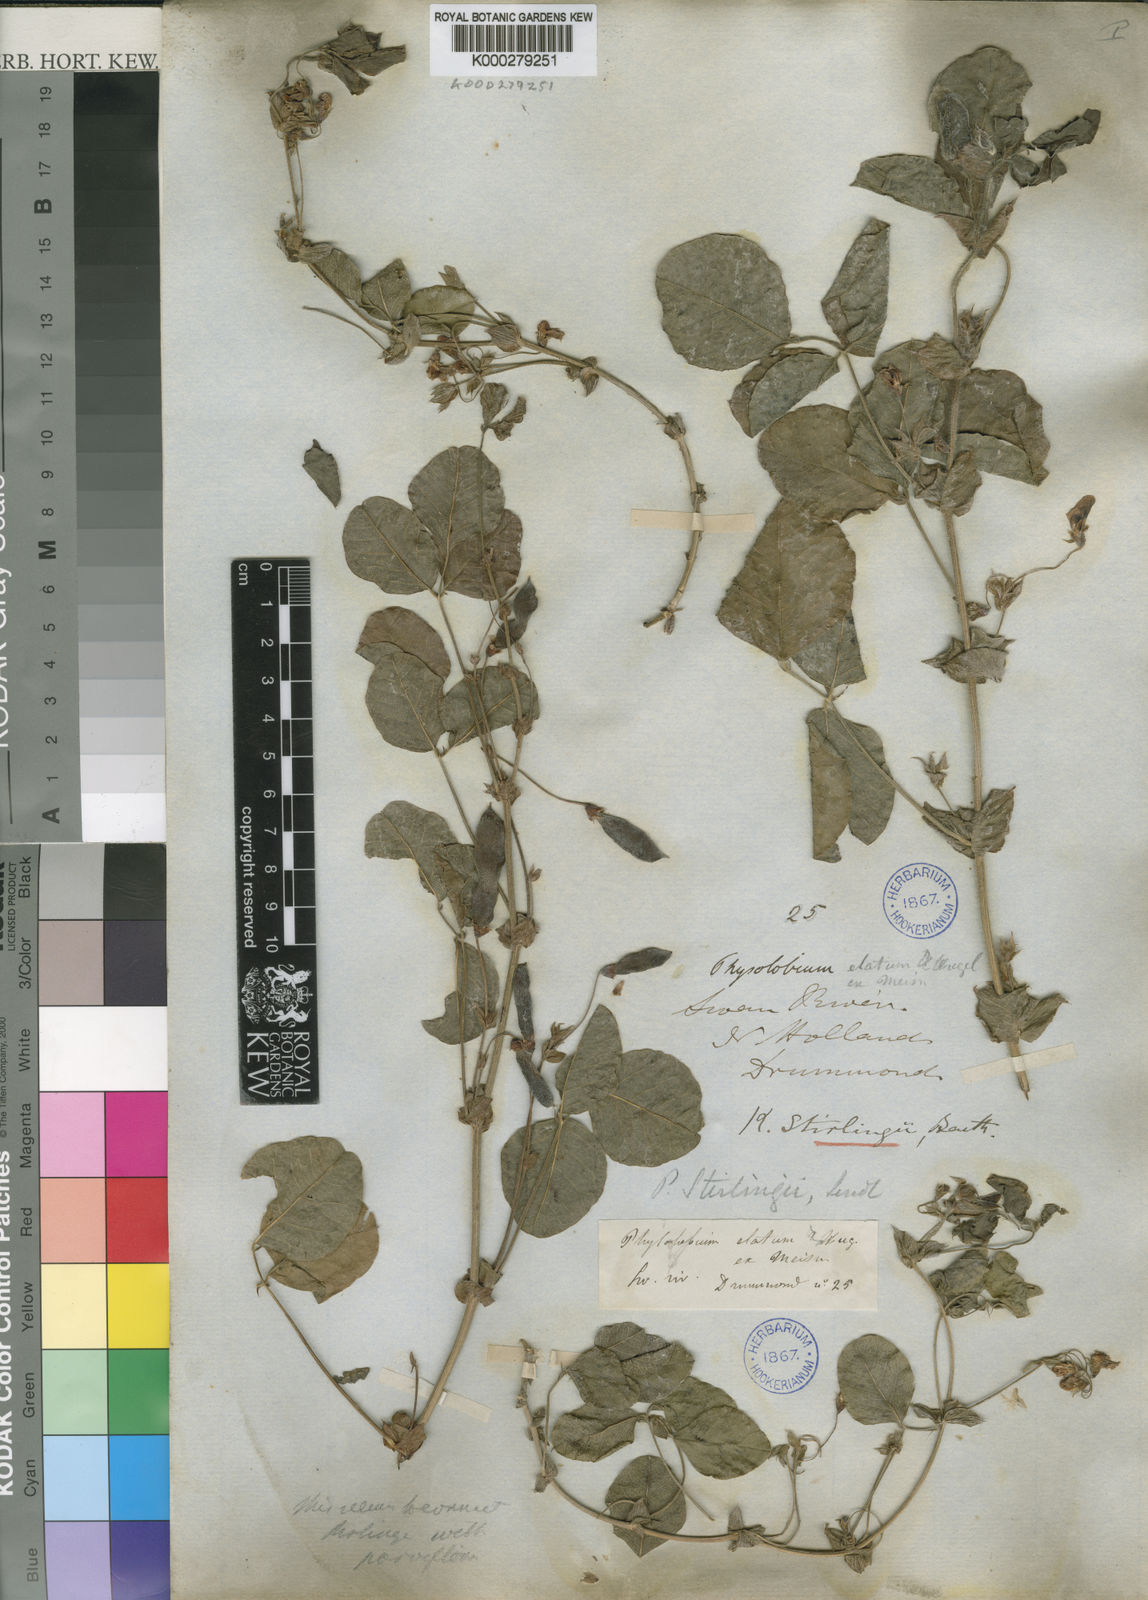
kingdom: Plantae
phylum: Tracheophyta
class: Magnoliopsida
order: Fabales
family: Fabaceae
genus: Kennedia
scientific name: Kennedia stirlingii
